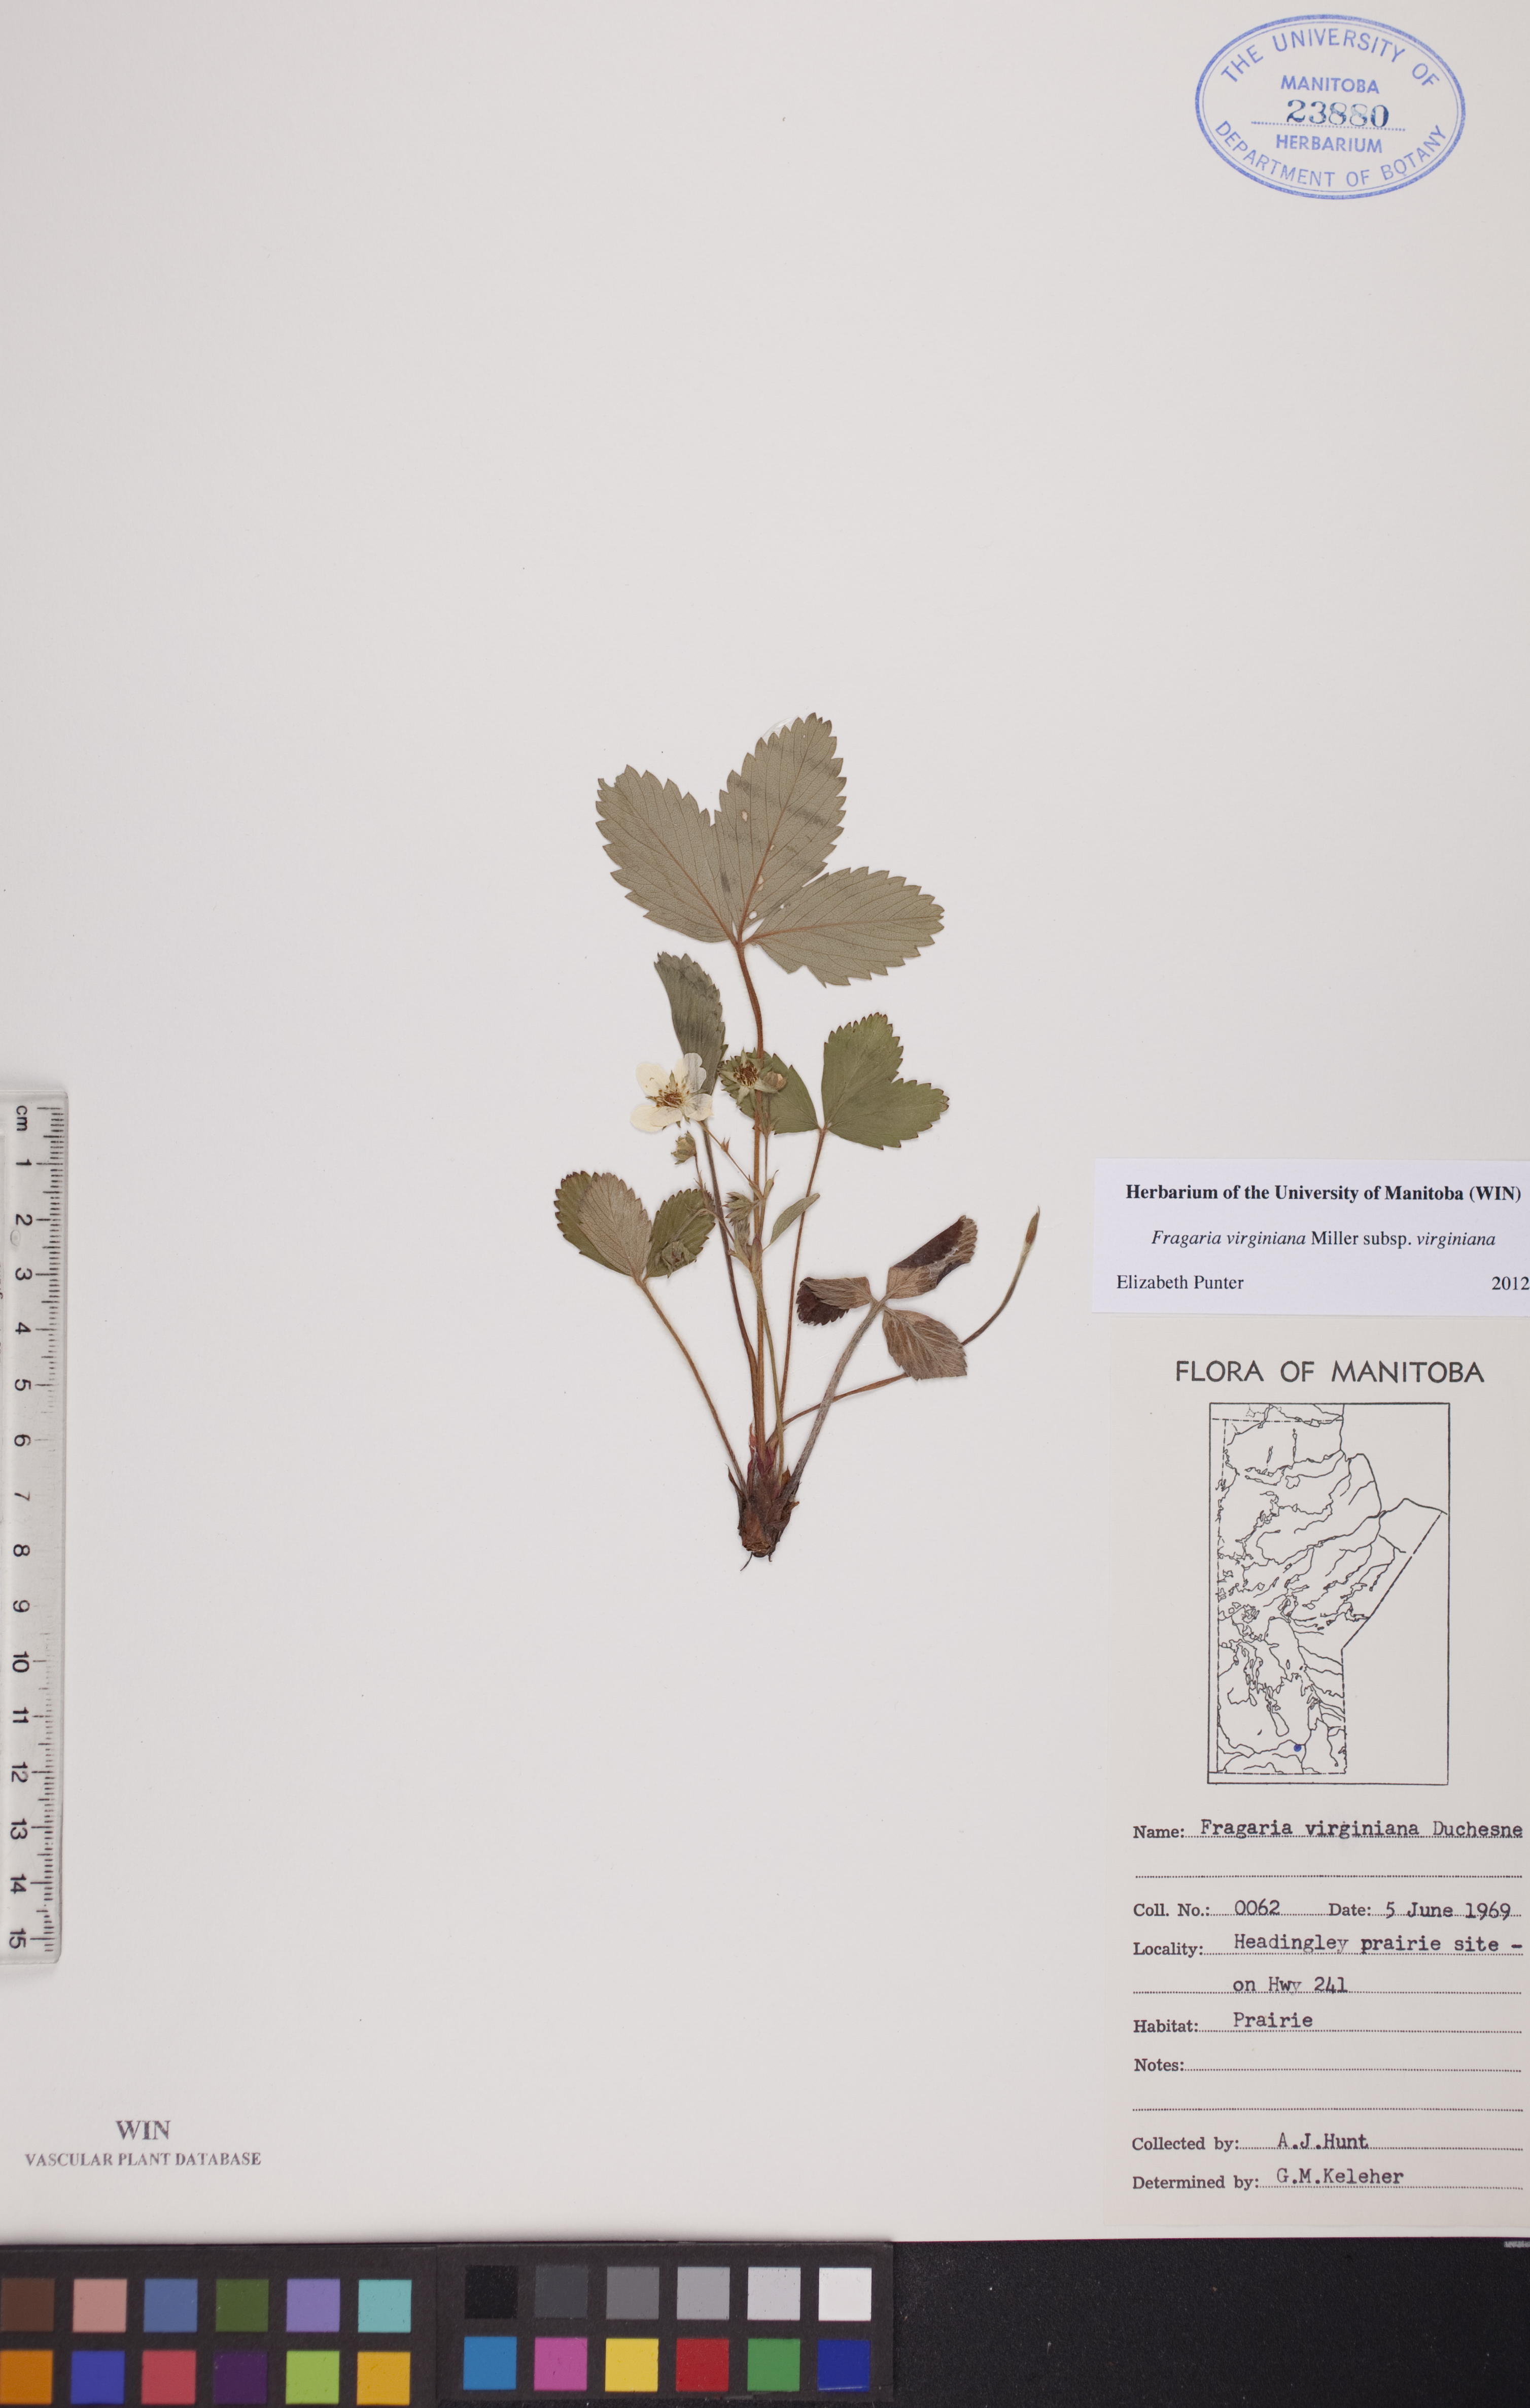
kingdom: Plantae
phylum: Tracheophyta
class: Magnoliopsida
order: Rosales
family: Rosaceae
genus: Fragaria
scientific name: Fragaria virginiana
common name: Thickleaved wild strawberry
